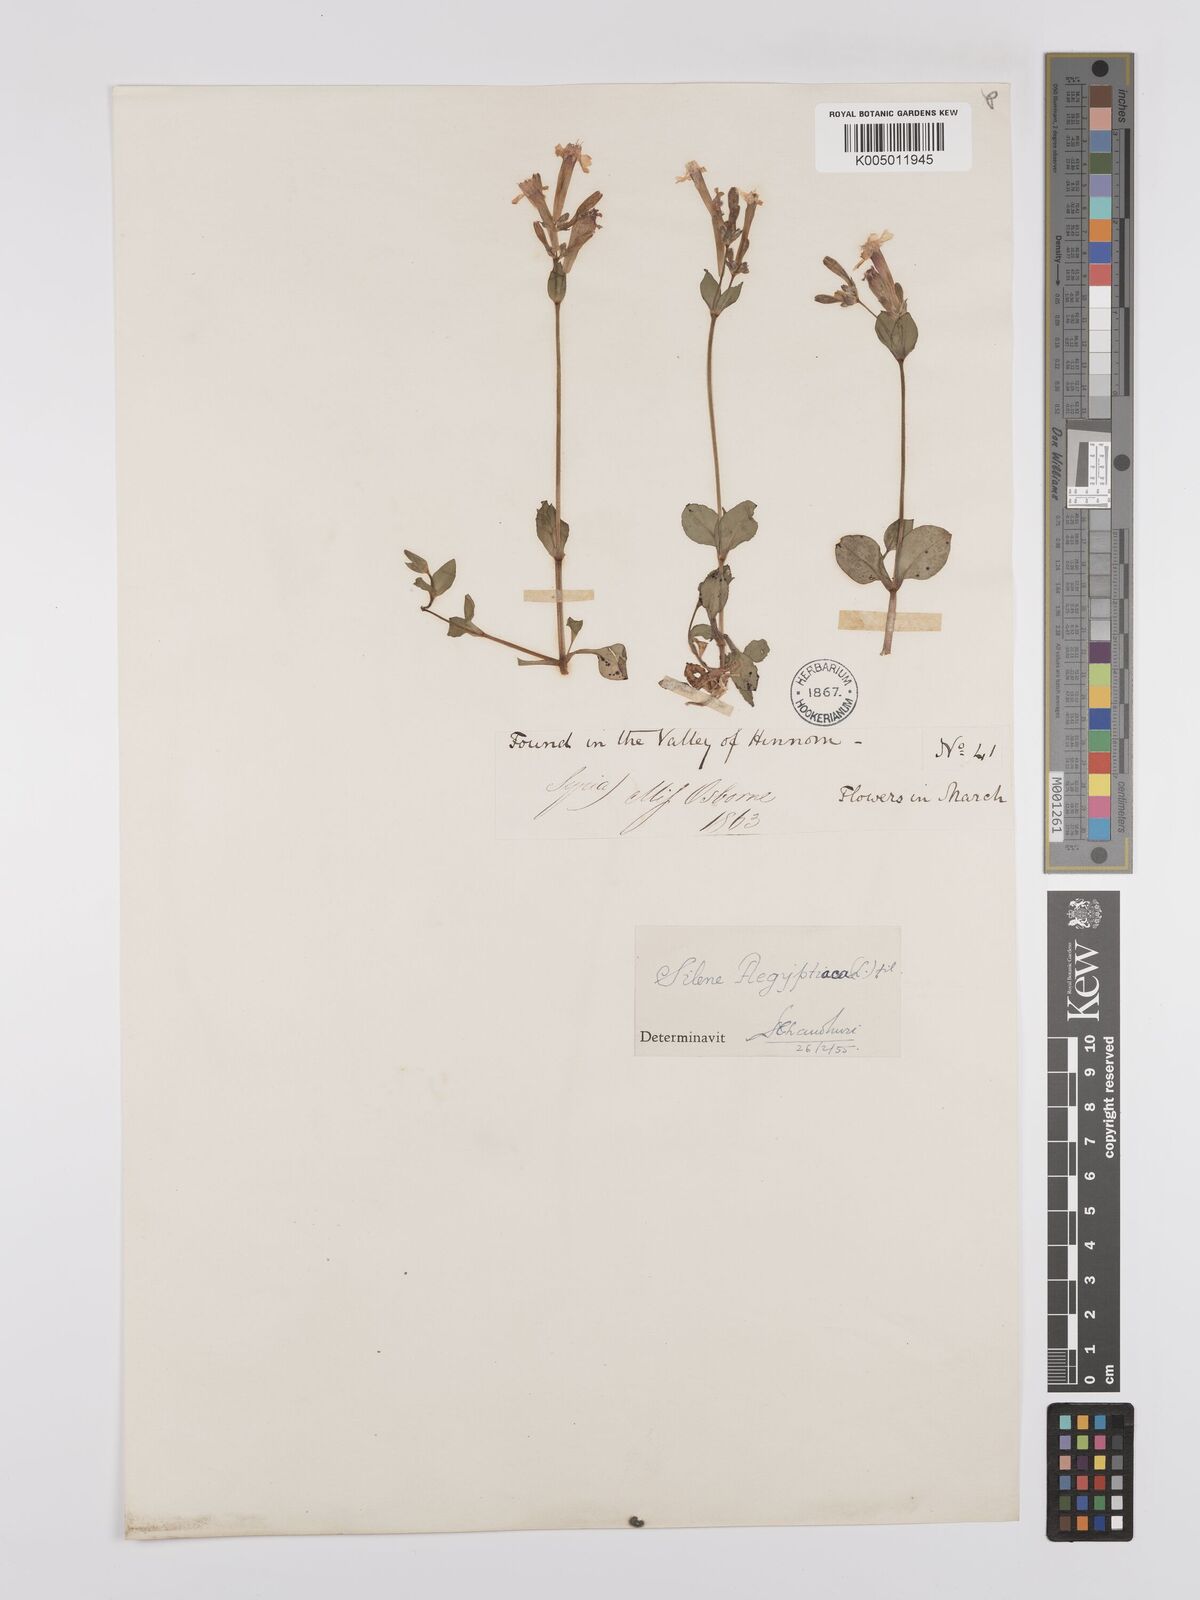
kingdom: Plantae
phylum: Tracheophyta
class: Magnoliopsida
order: Caryophyllales
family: Caryophyllaceae
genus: Silene
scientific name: Silene aegyptiaca
